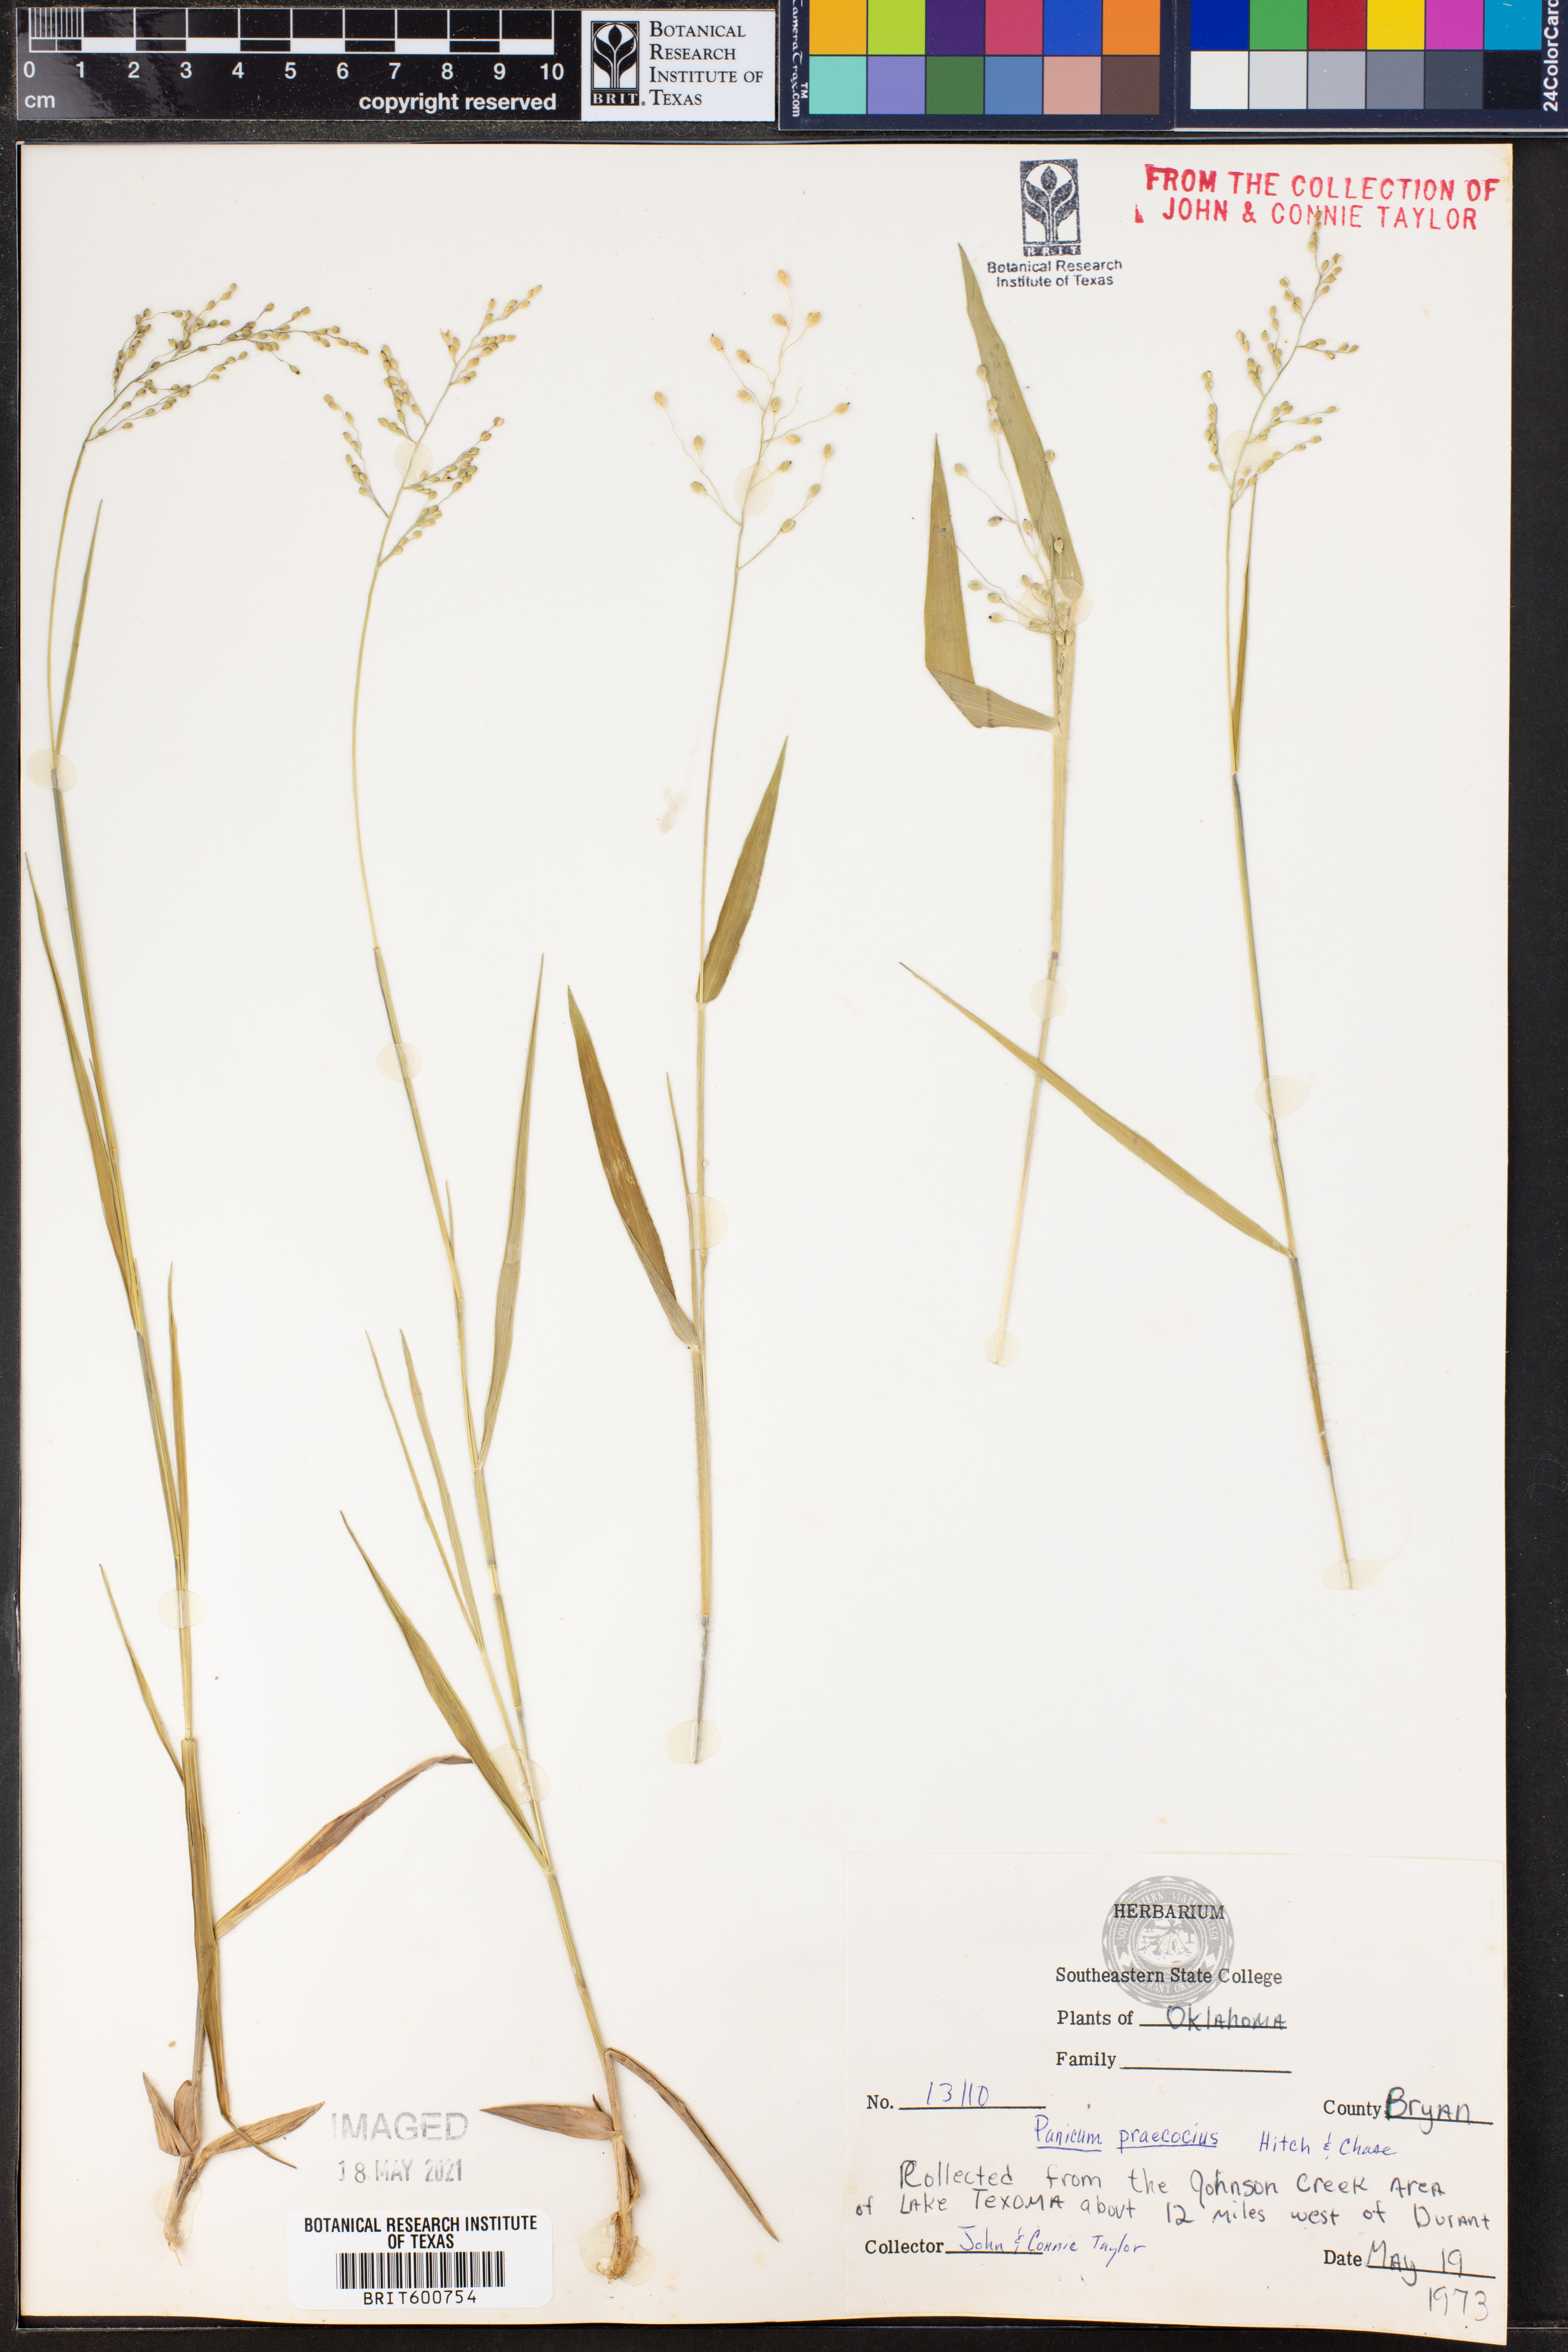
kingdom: Plantae
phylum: Tracheophyta
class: Liliopsida
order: Poales
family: Poaceae
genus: Dichanthelium
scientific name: Dichanthelium praecocius
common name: Early-branching panicgrass
